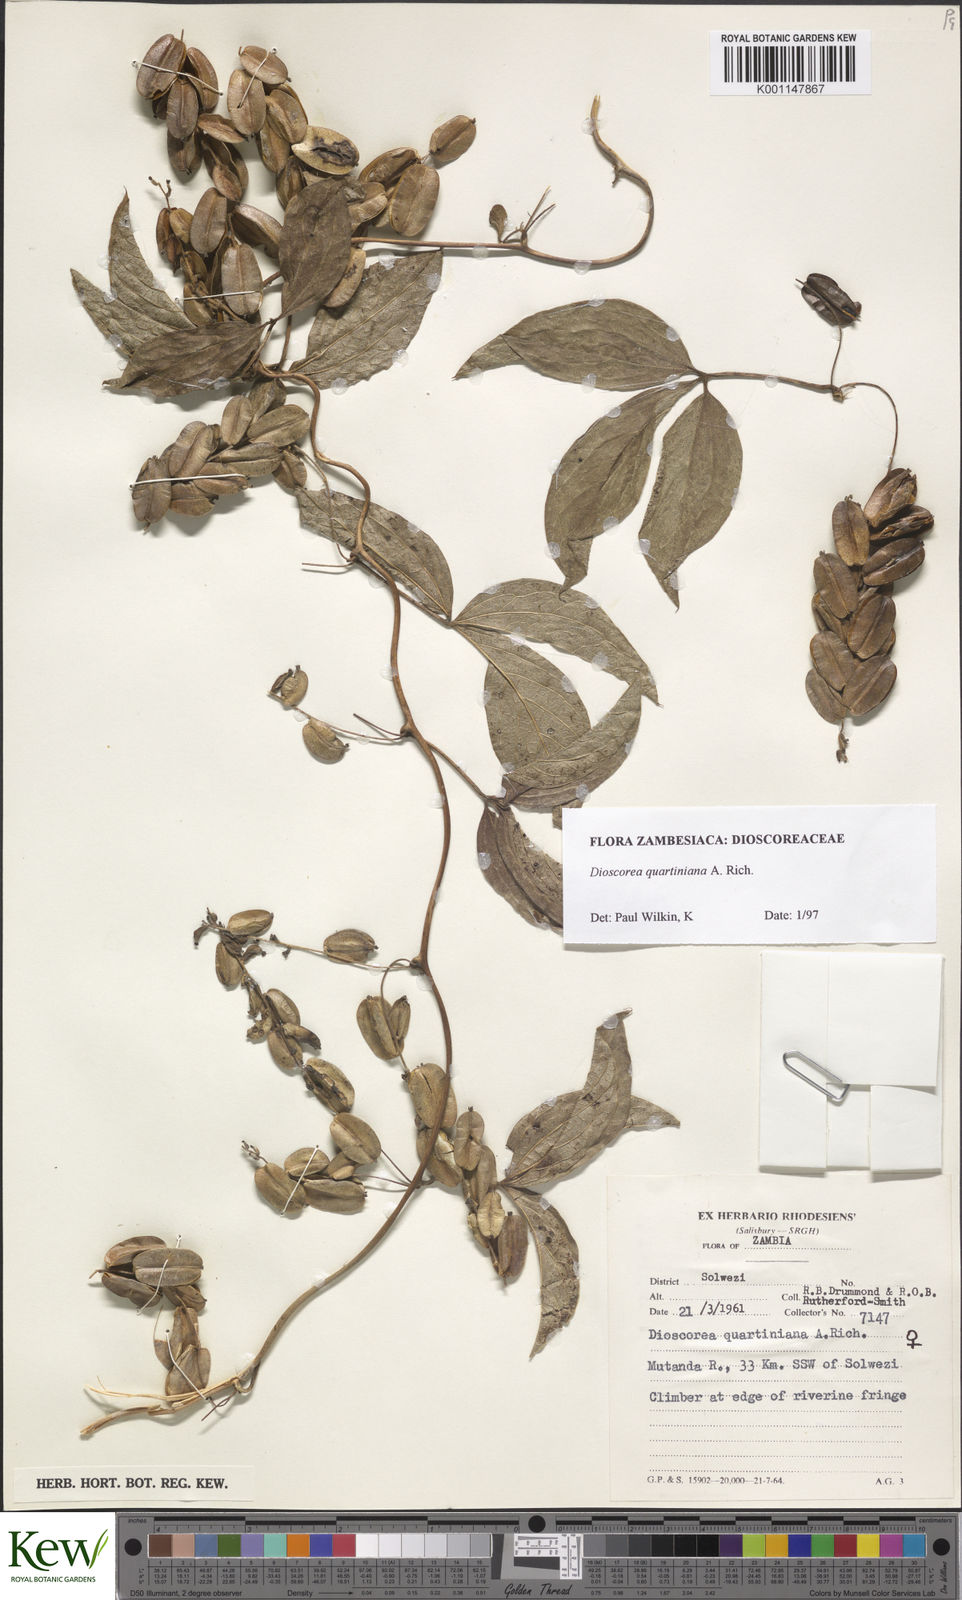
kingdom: Plantae
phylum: Tracheophyta
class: Liliopsida
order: Dioscoreales
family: Dioscoreaceae
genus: Dioscorea
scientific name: Dioscorea quartiniana
